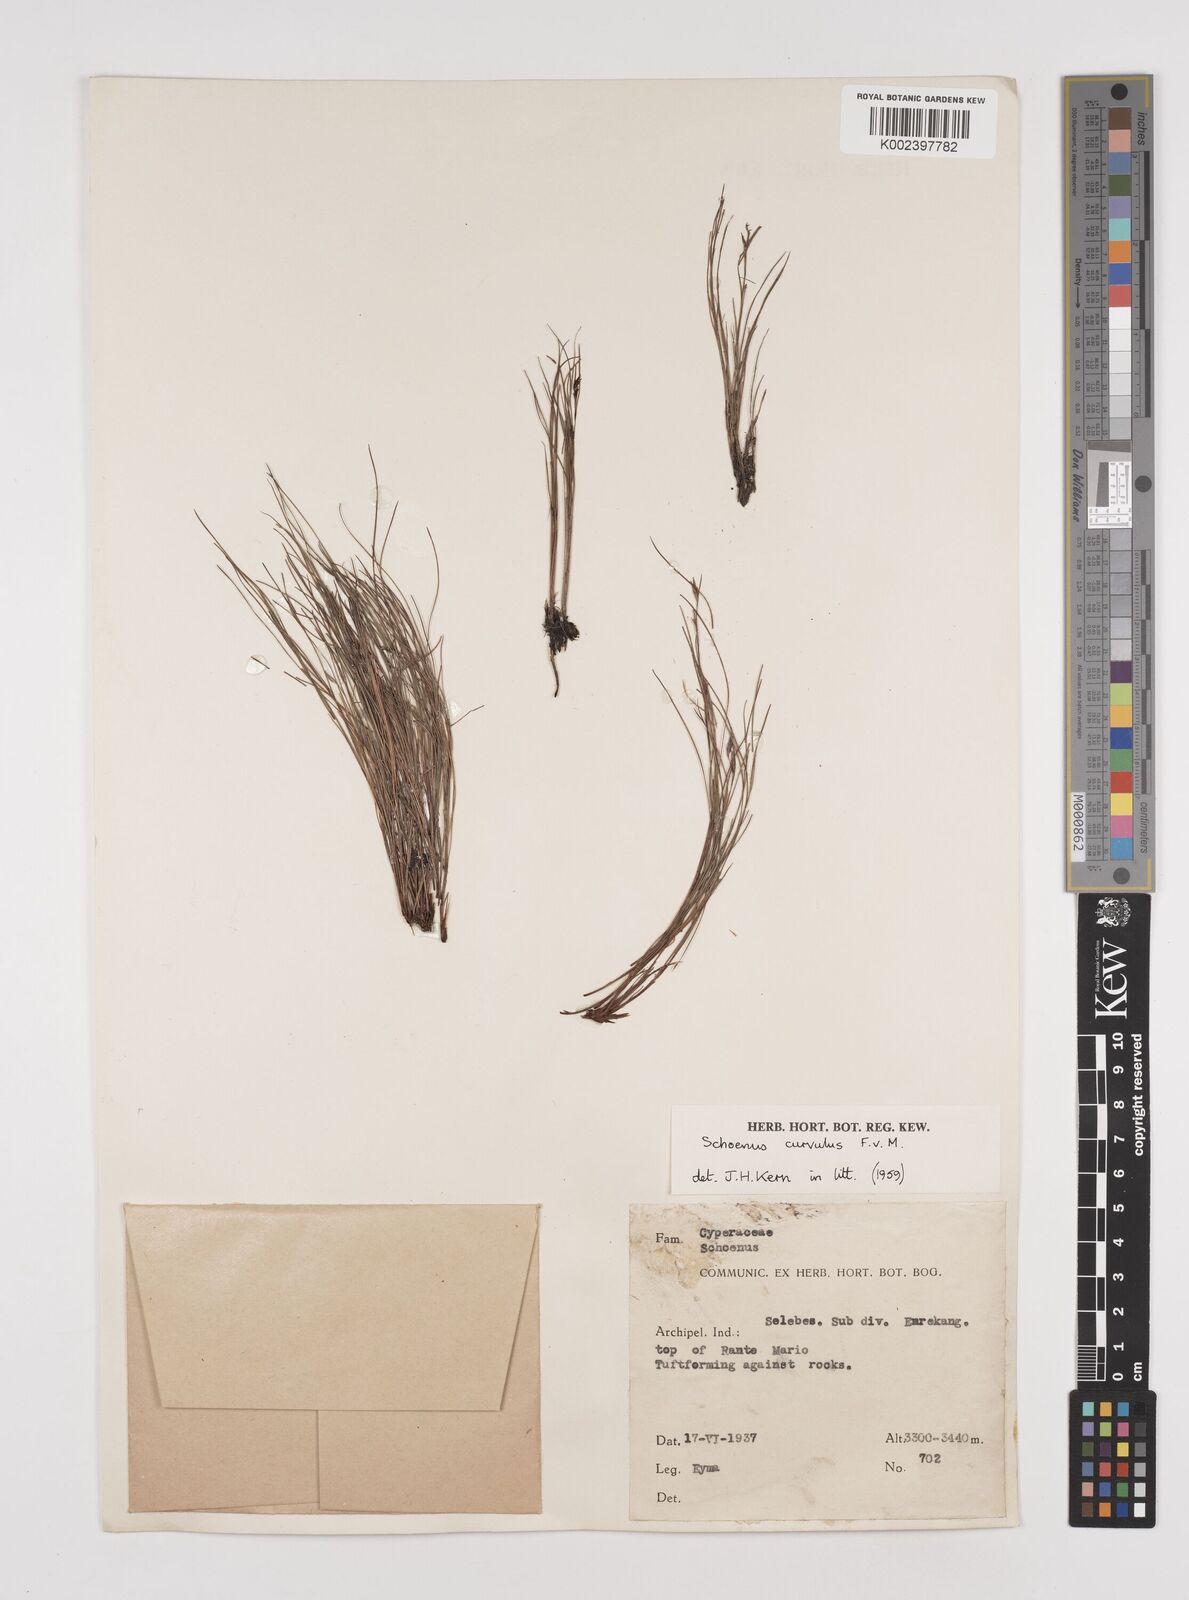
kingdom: Plantae
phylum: Tracheophyta
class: Liliopsida
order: Poales
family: Cyperaceae
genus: Schoenus
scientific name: Schoenus curvulus
